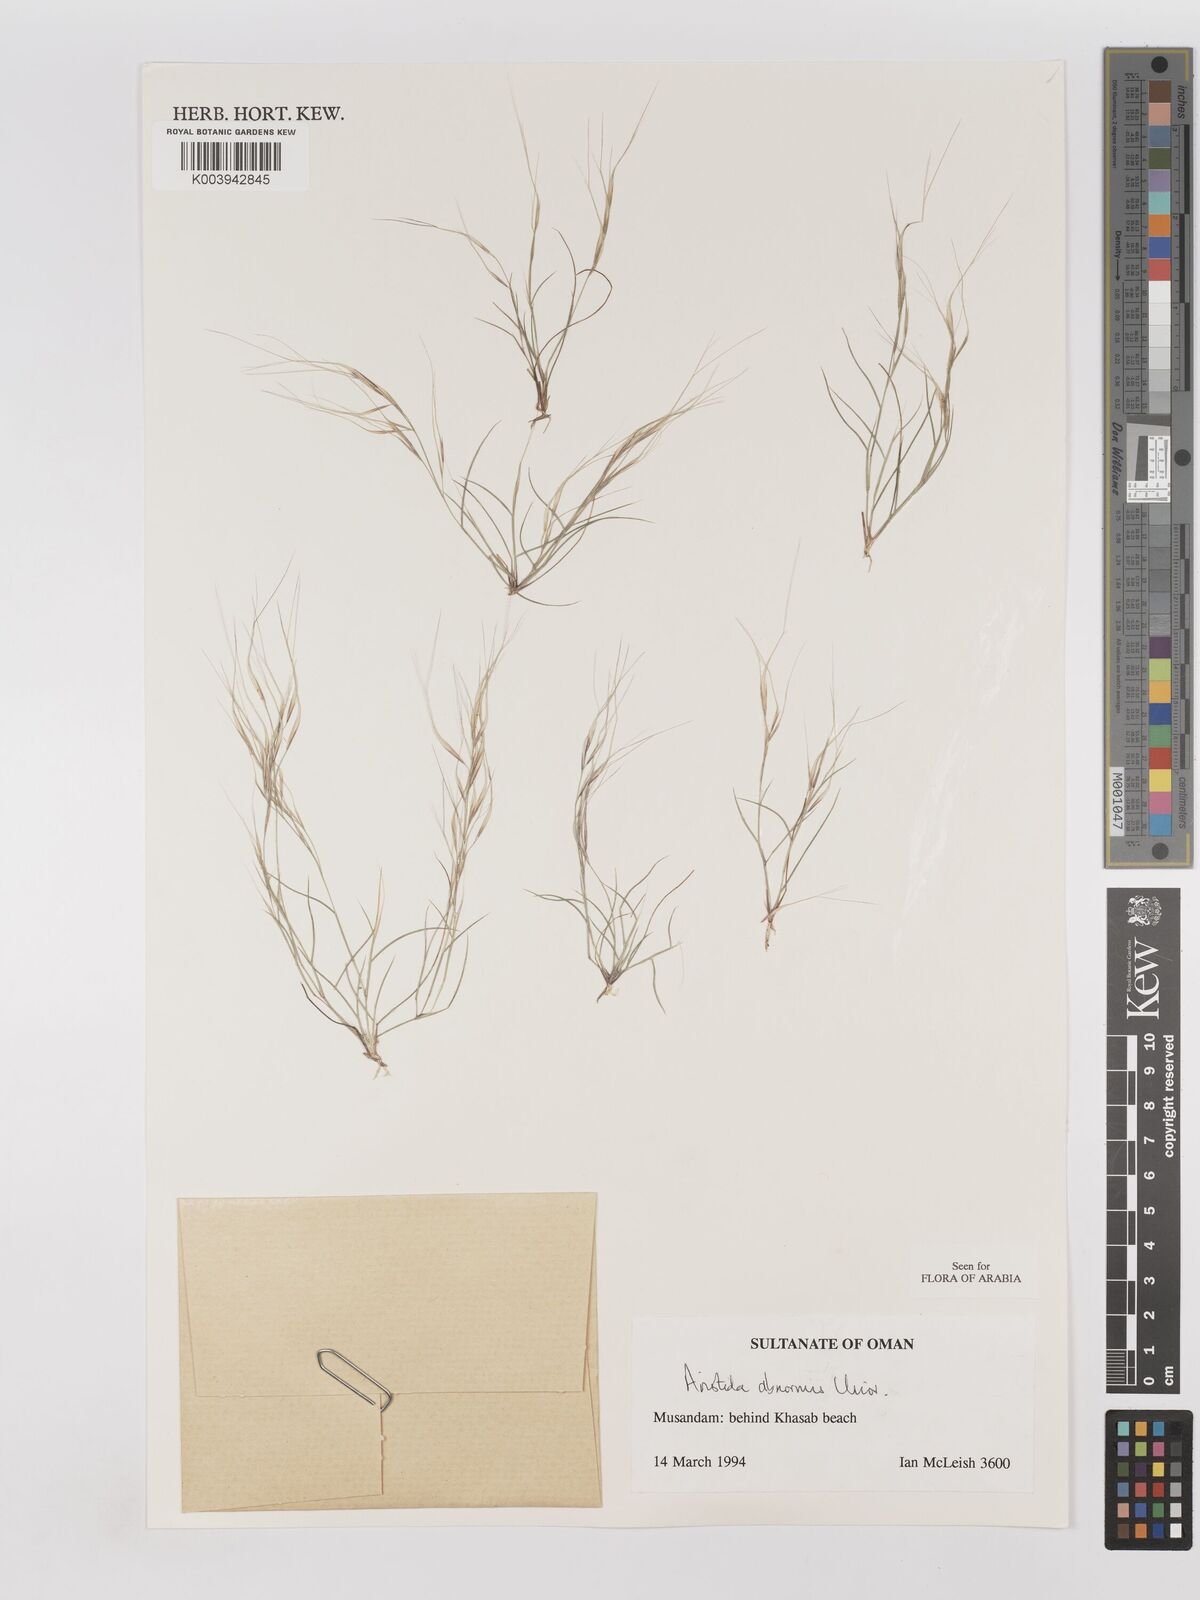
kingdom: Plantae
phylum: Tracheophyta
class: Liliopsida
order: Poales
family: Poaceae
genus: Aristida
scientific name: Aristida abnormis
